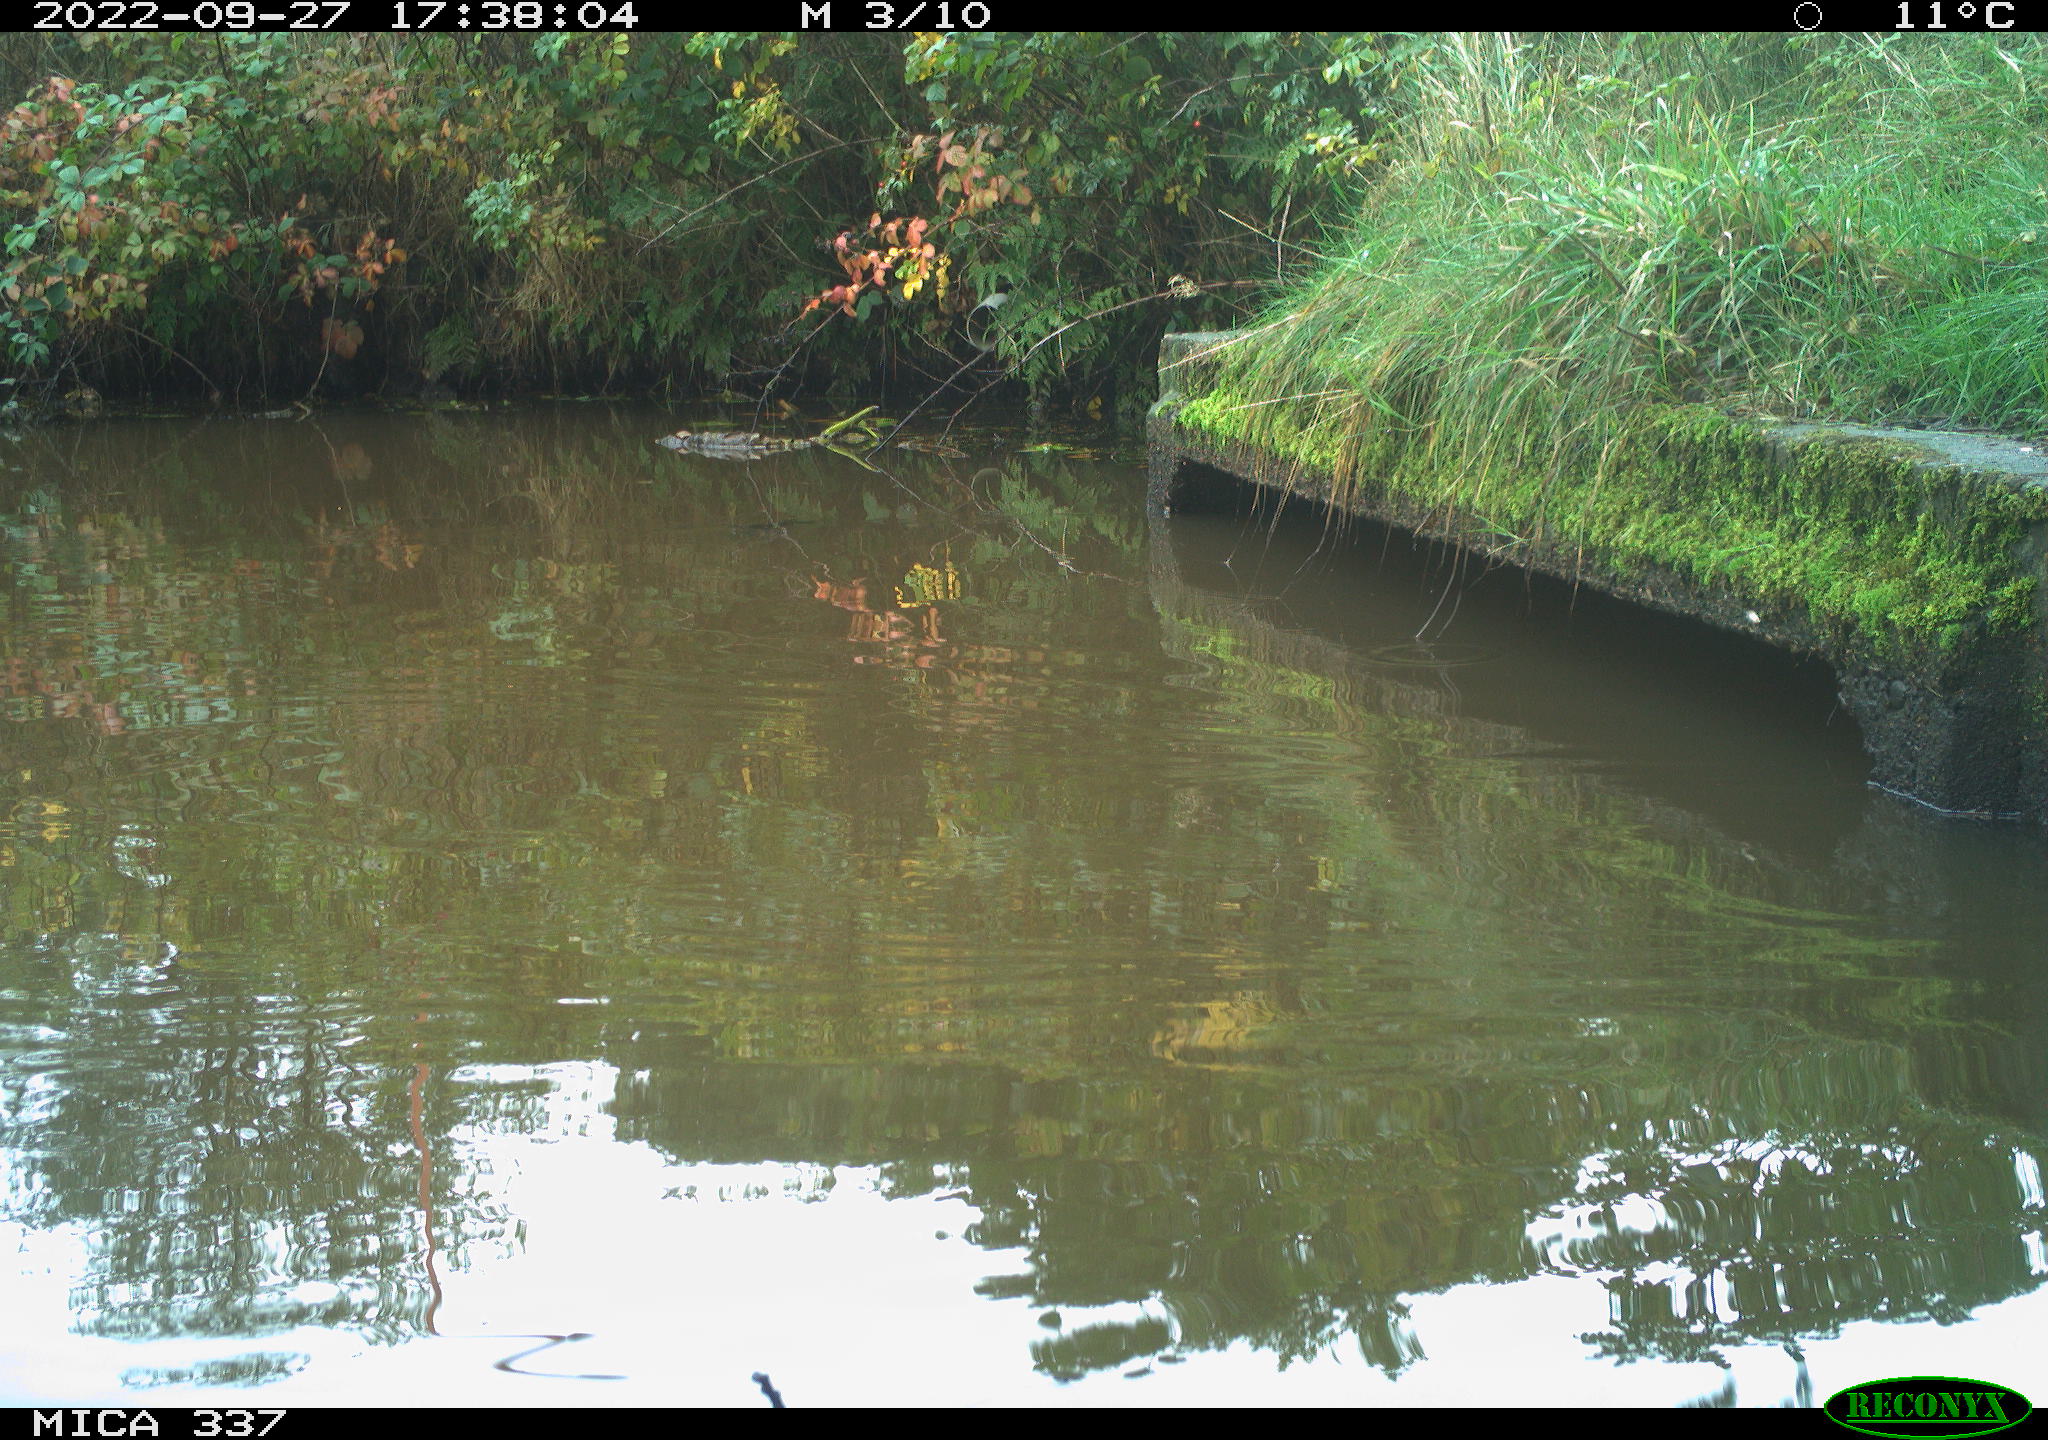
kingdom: Animalia
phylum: Chordata
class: Aves
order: Gruiformes
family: Rallidae
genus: Gallinula
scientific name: Gallinula chloropus
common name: Common moorhen
